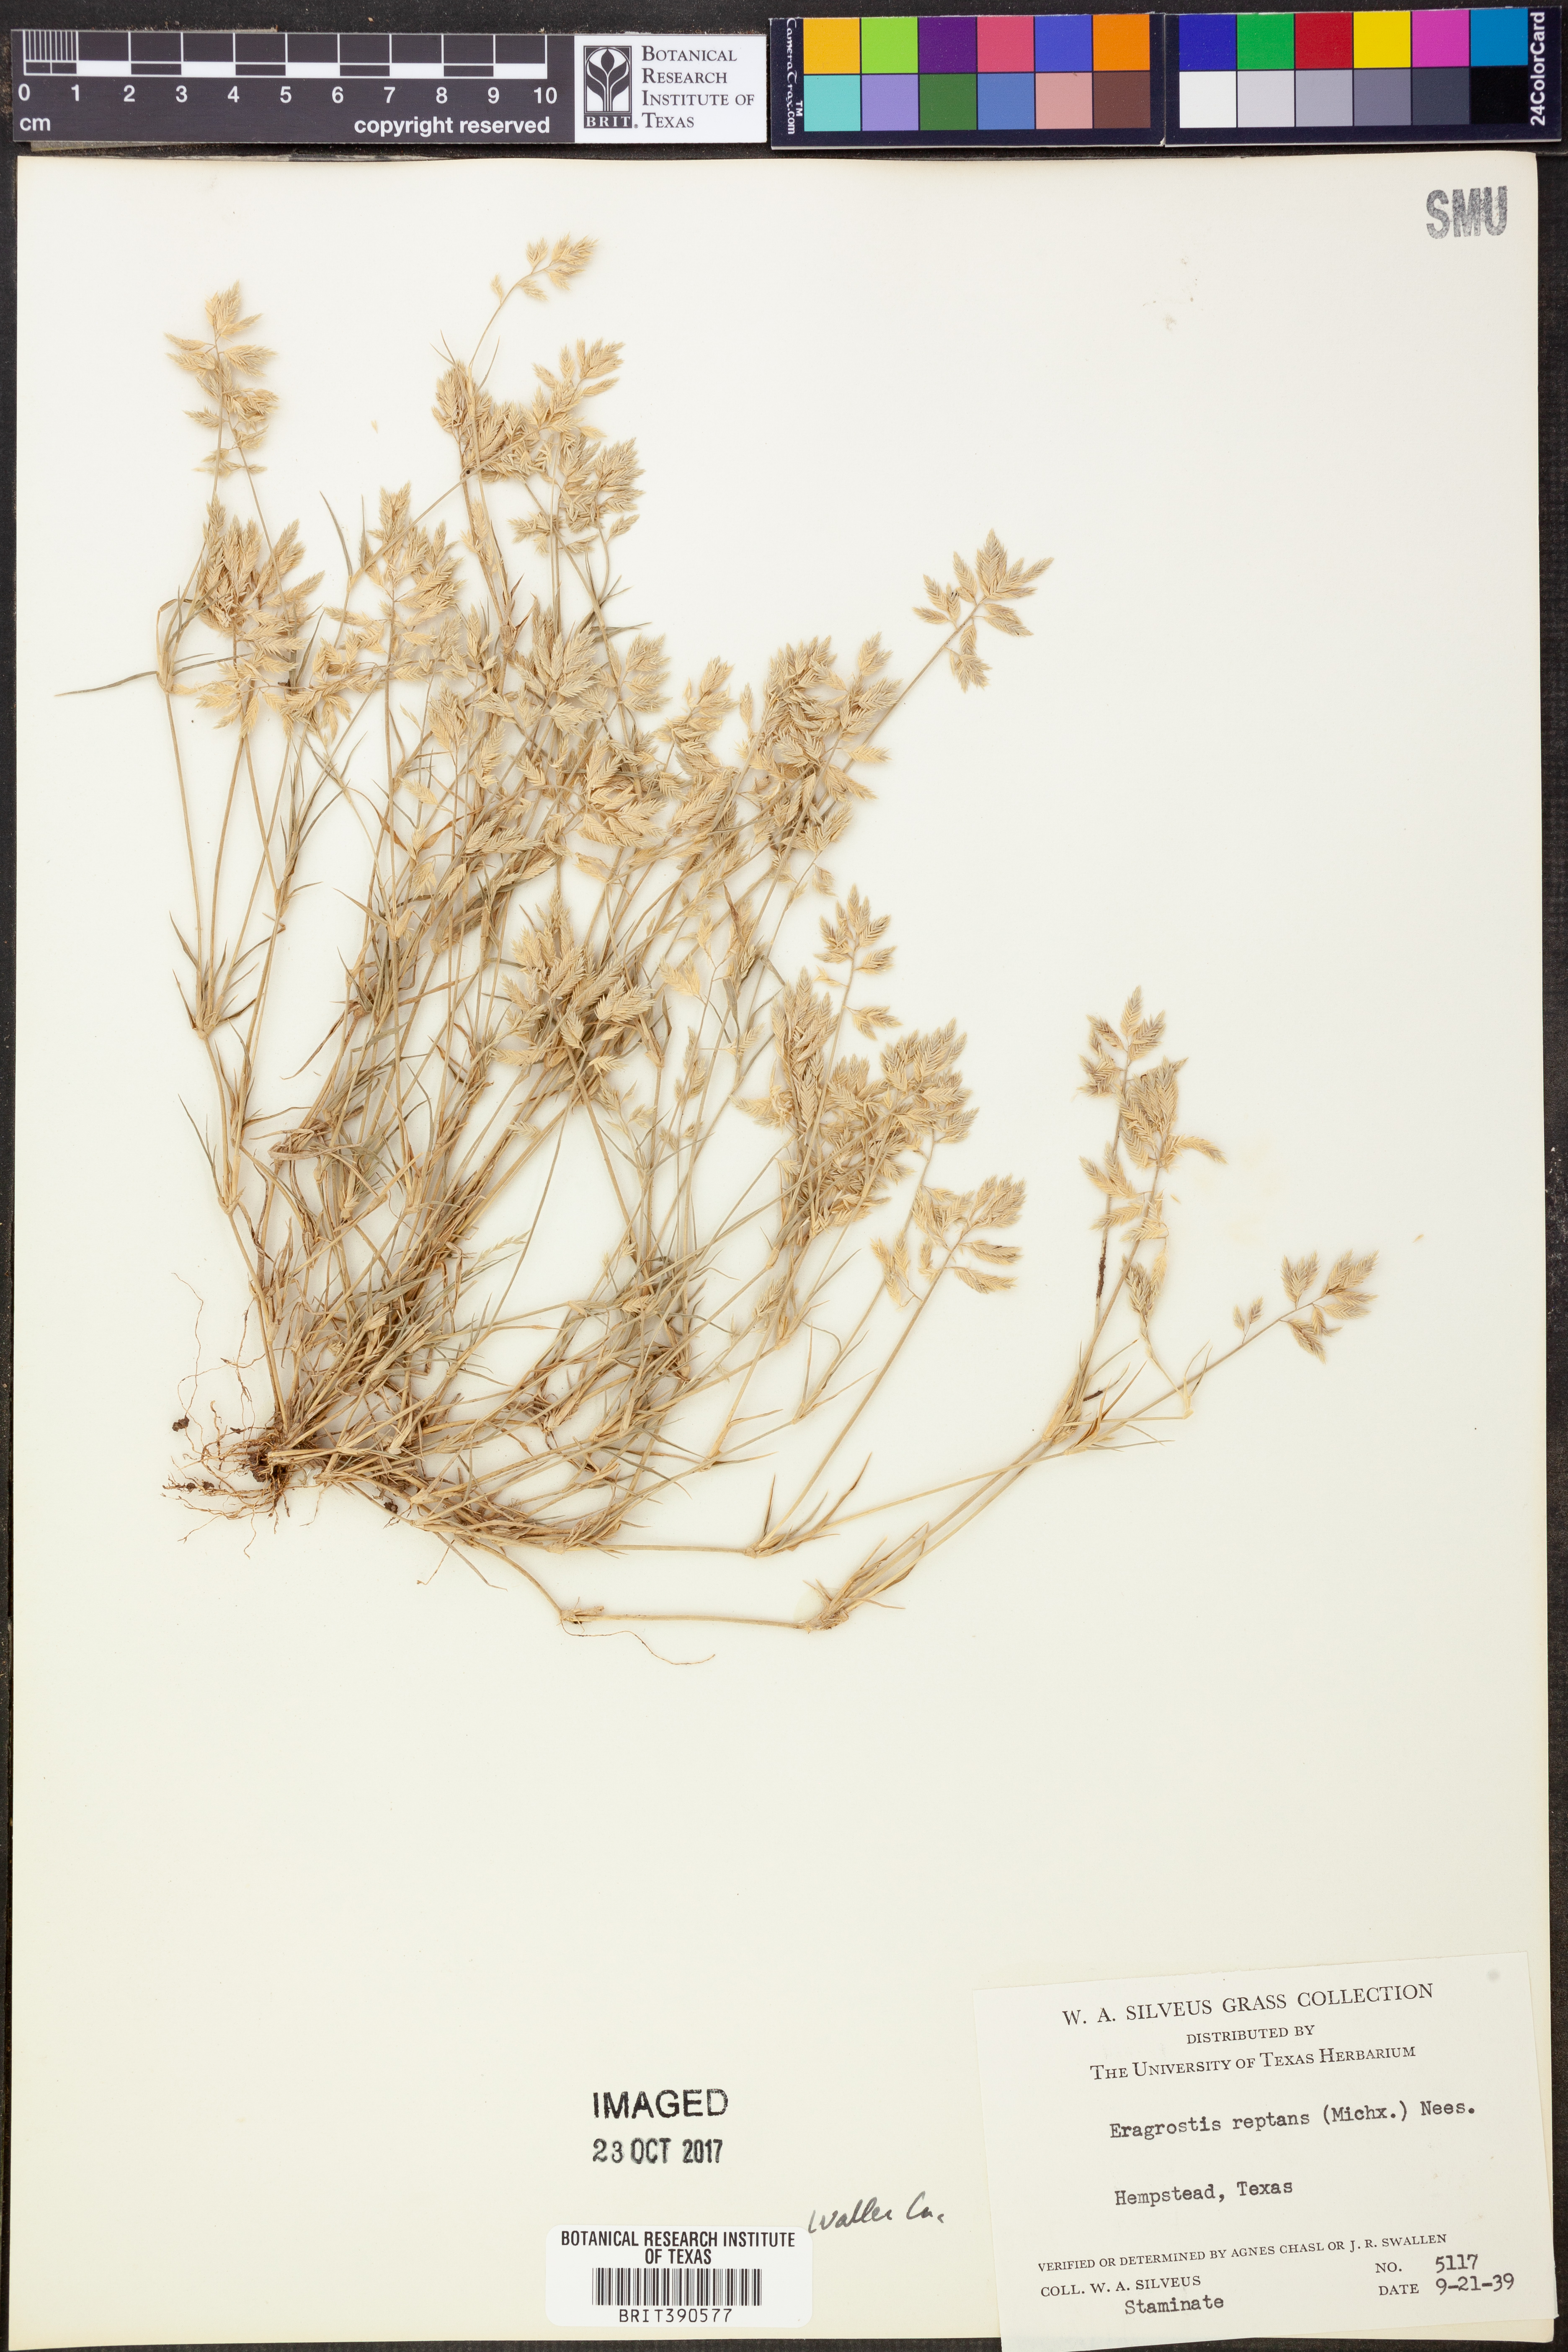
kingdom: Plantae
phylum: Tracheophyta
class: Liliopsida
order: Poales
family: Poaceae
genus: Eragrostis
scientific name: Eragrostis reptans
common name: Creeping love grass
